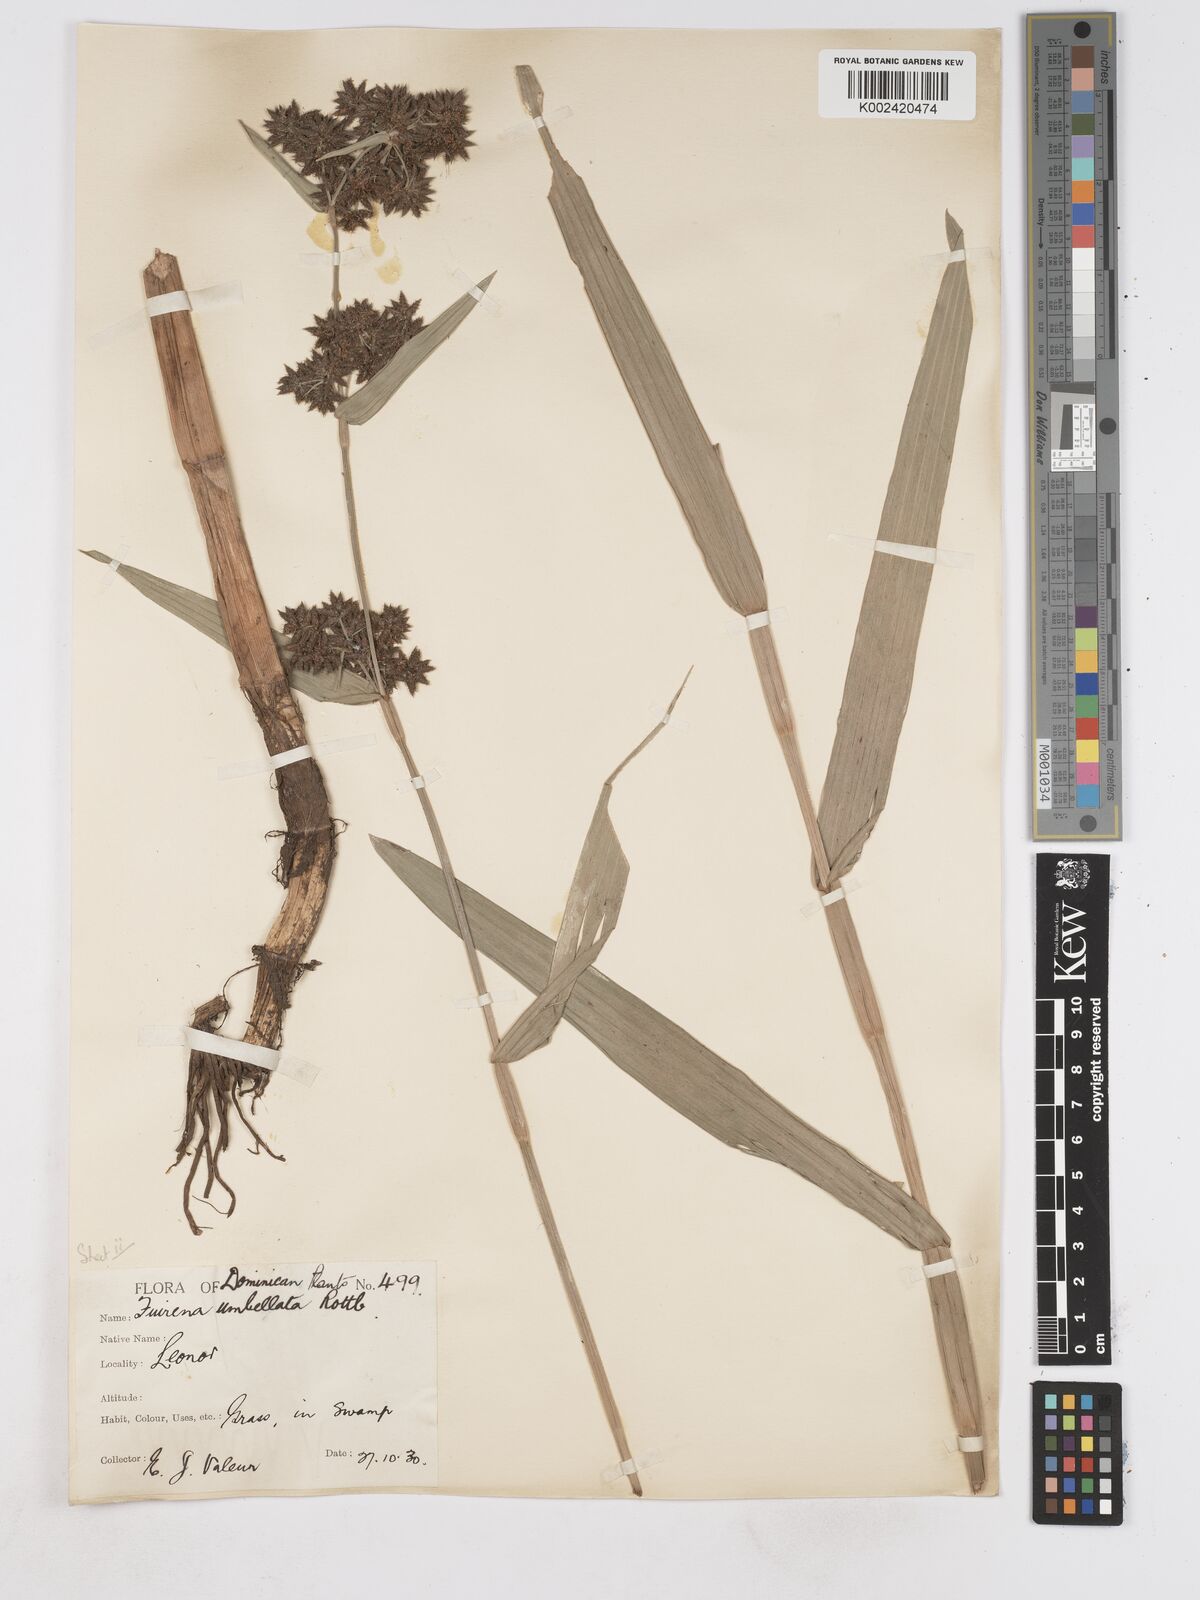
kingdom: Plantae
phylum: Tracheophyta
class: Liliopsida
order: Poales
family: Cyperaceae
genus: Fuirena
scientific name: Fuirena umbellata
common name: Yefen
